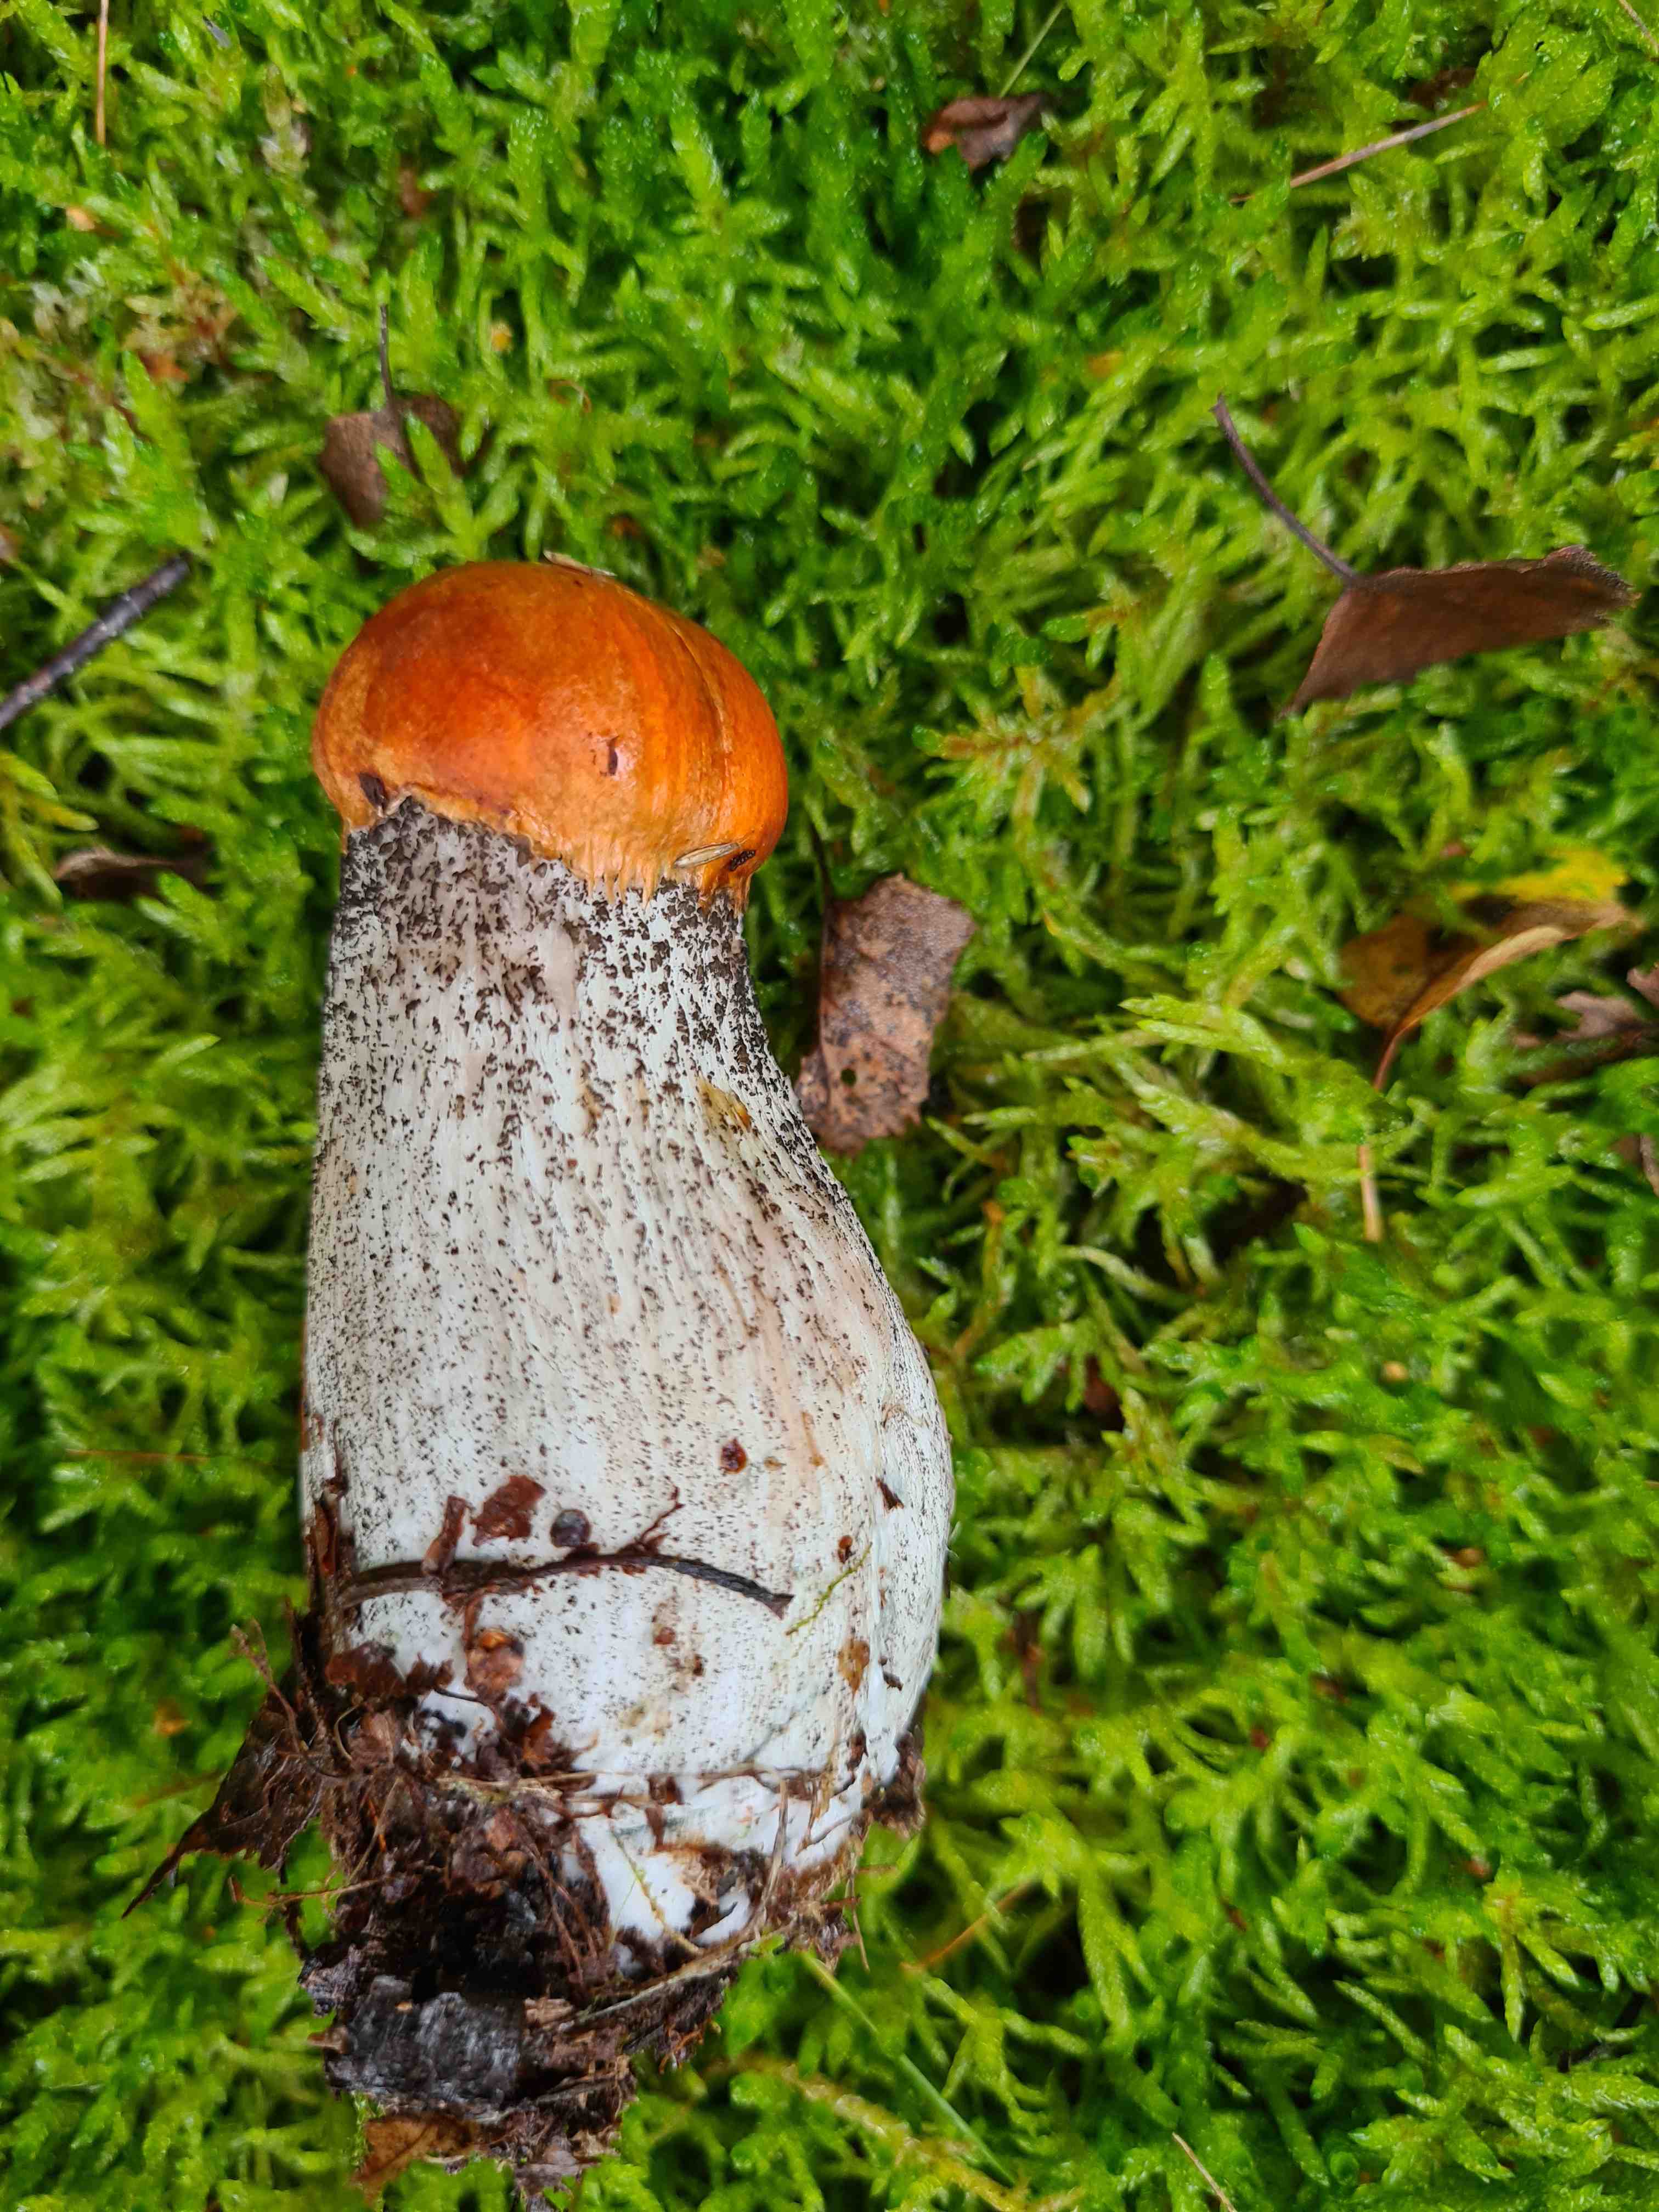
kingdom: Fungi
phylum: Basidiomycota
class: Agaricomycetes
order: Boletales
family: Boletaceae
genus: Leccinum
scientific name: Leccinum versipelle
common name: orange skælrørhat
